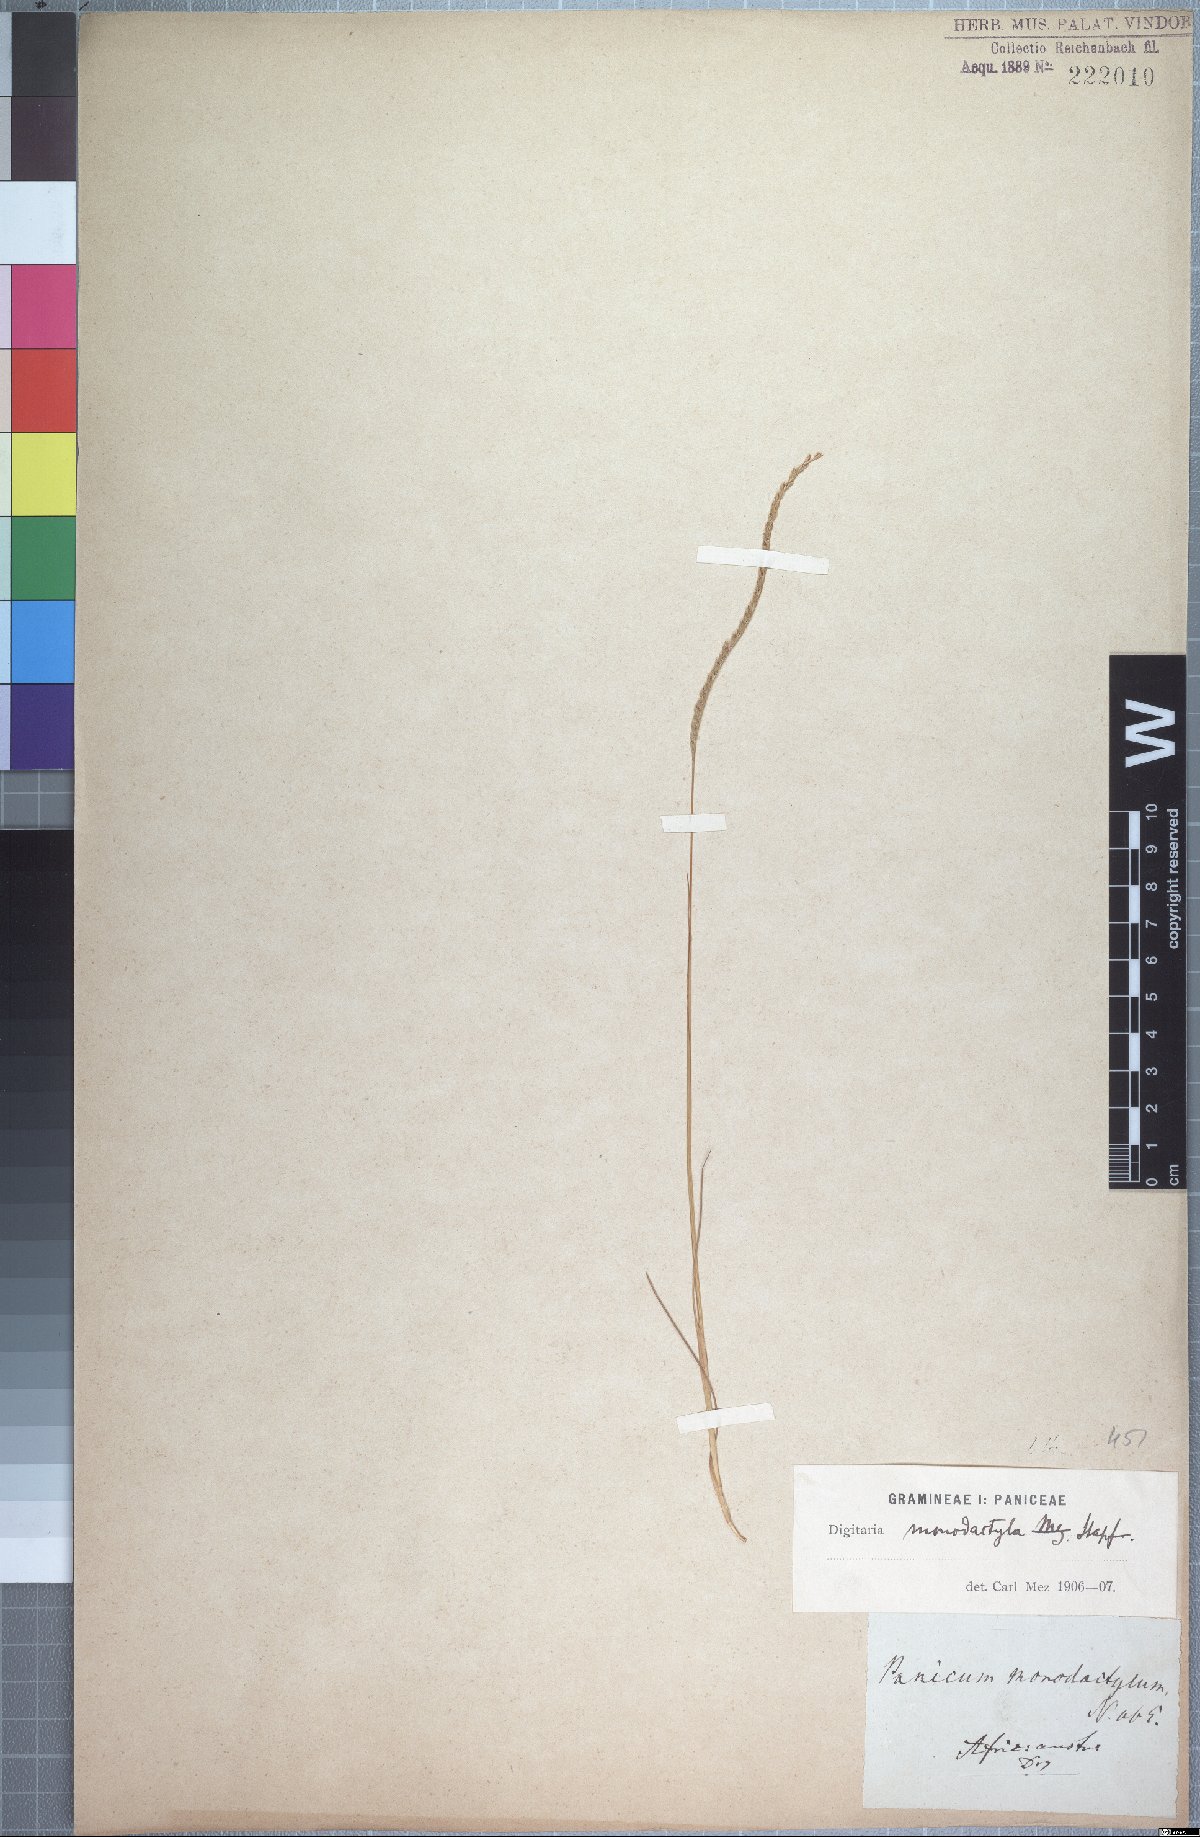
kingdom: Plantae
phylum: Tracheophyta
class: Liliopsida
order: Poales
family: Poaceae
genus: Digitaria
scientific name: Digitaria monodactyla
